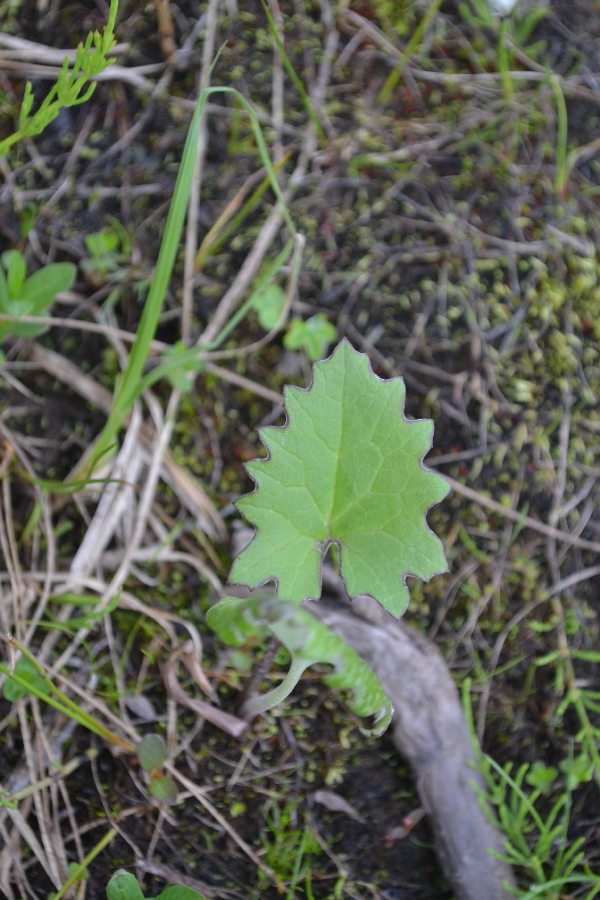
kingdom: Plantae
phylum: Tracheophyta
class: Magnoliopsida
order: Asterales
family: Asteraceae
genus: Petasites
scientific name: Petasites frigidus
